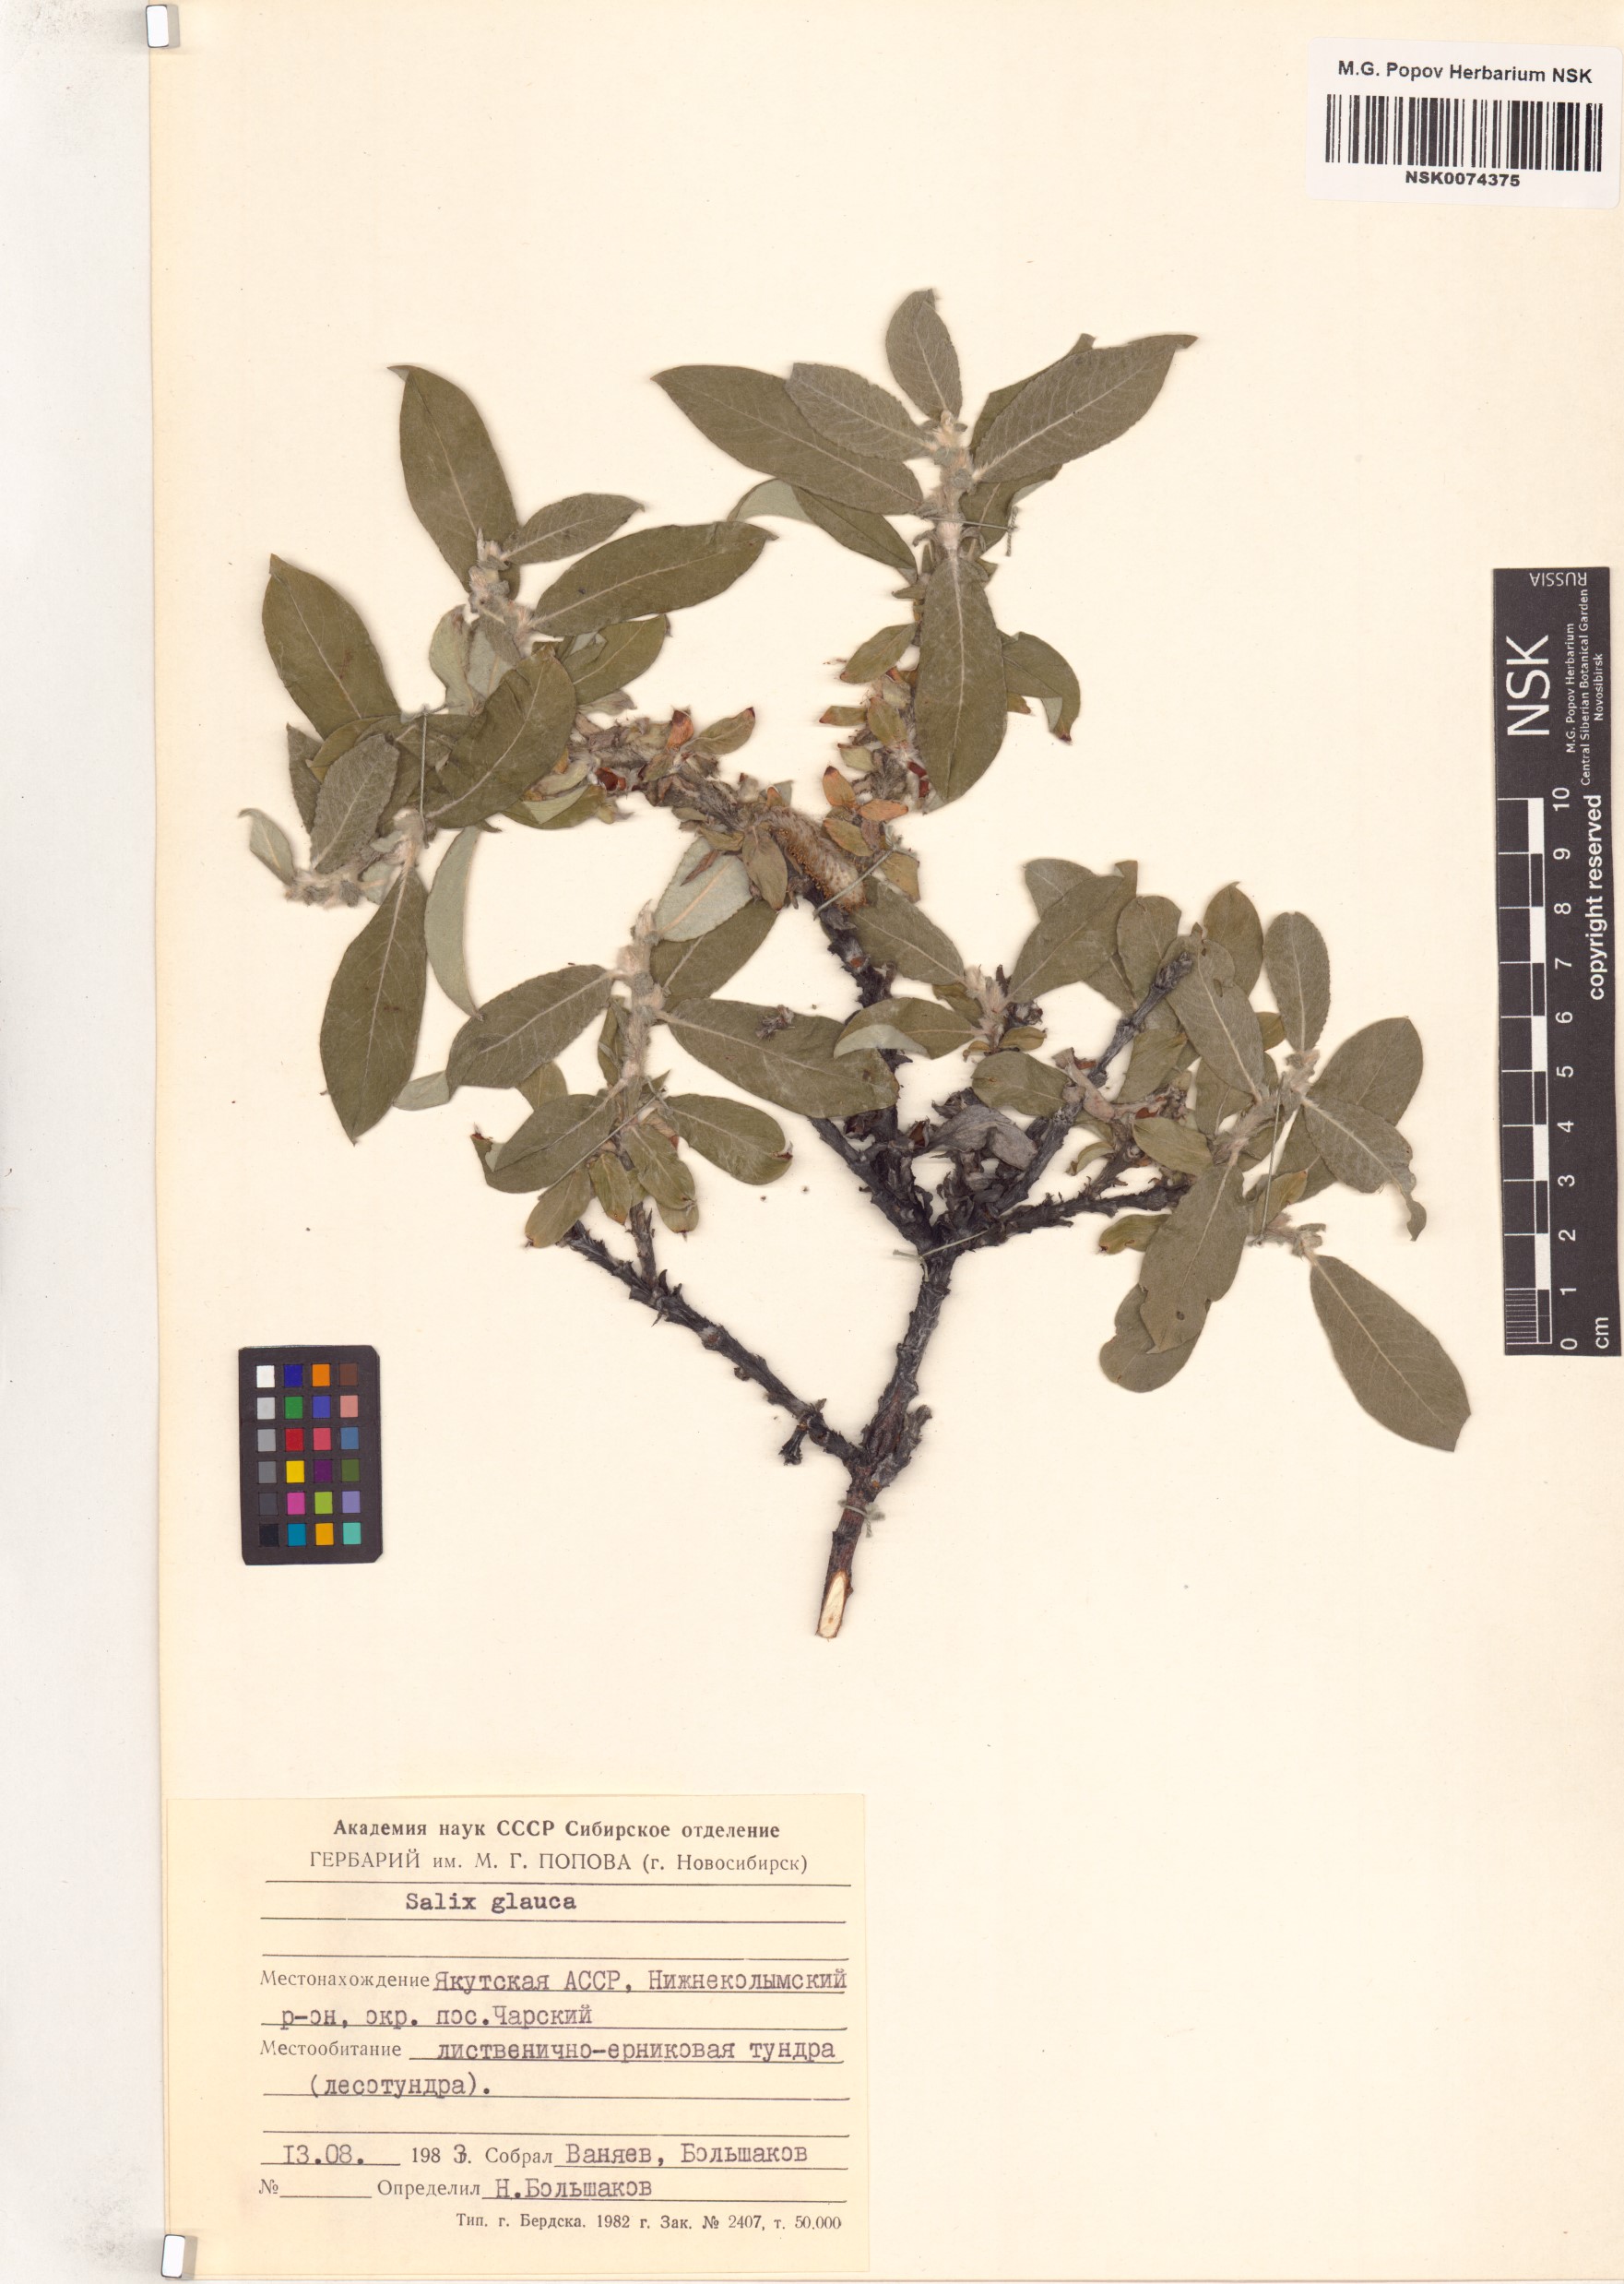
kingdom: Plantae
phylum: Tracheophyta
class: Magnoliopsida
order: Malpighiales
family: Salicaceae
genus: Salix
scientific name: Salix glauca
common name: Glaucous willow
